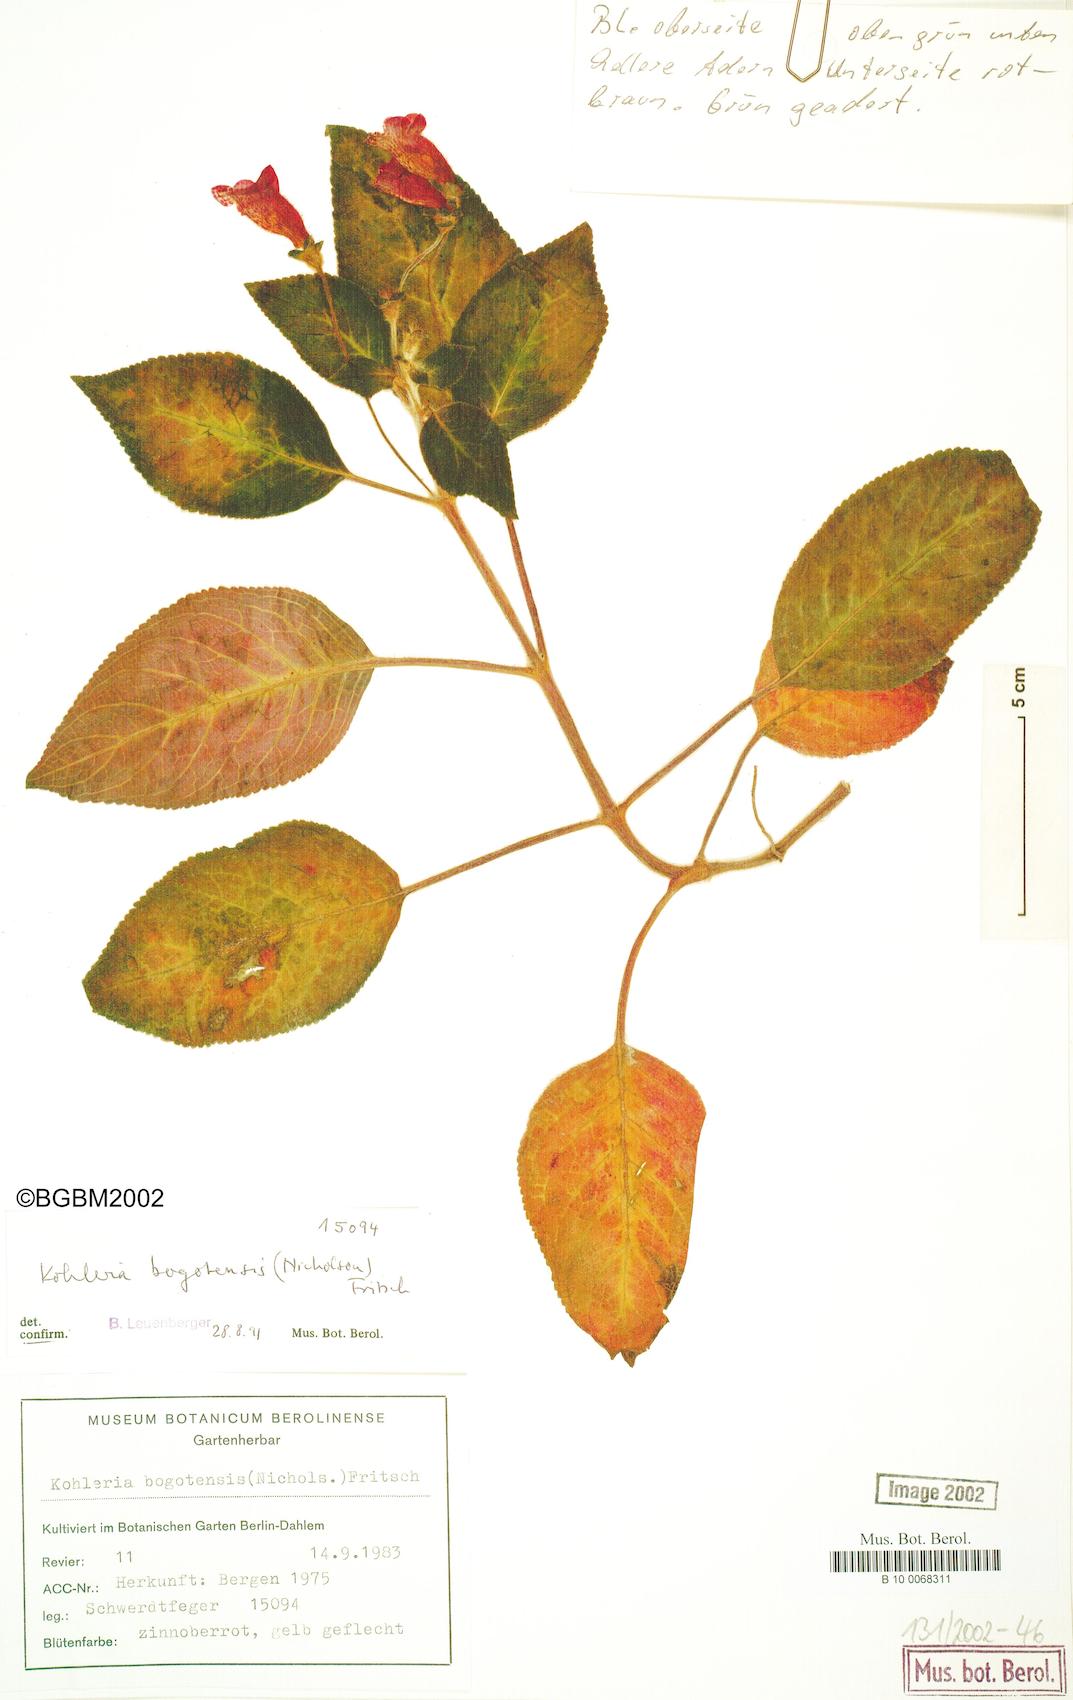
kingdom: Plantae
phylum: Tracheophyta
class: Magnoliopsida
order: Lamiales
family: Gesneriaceae
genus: Kohleria
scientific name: Kohleria amabilis
